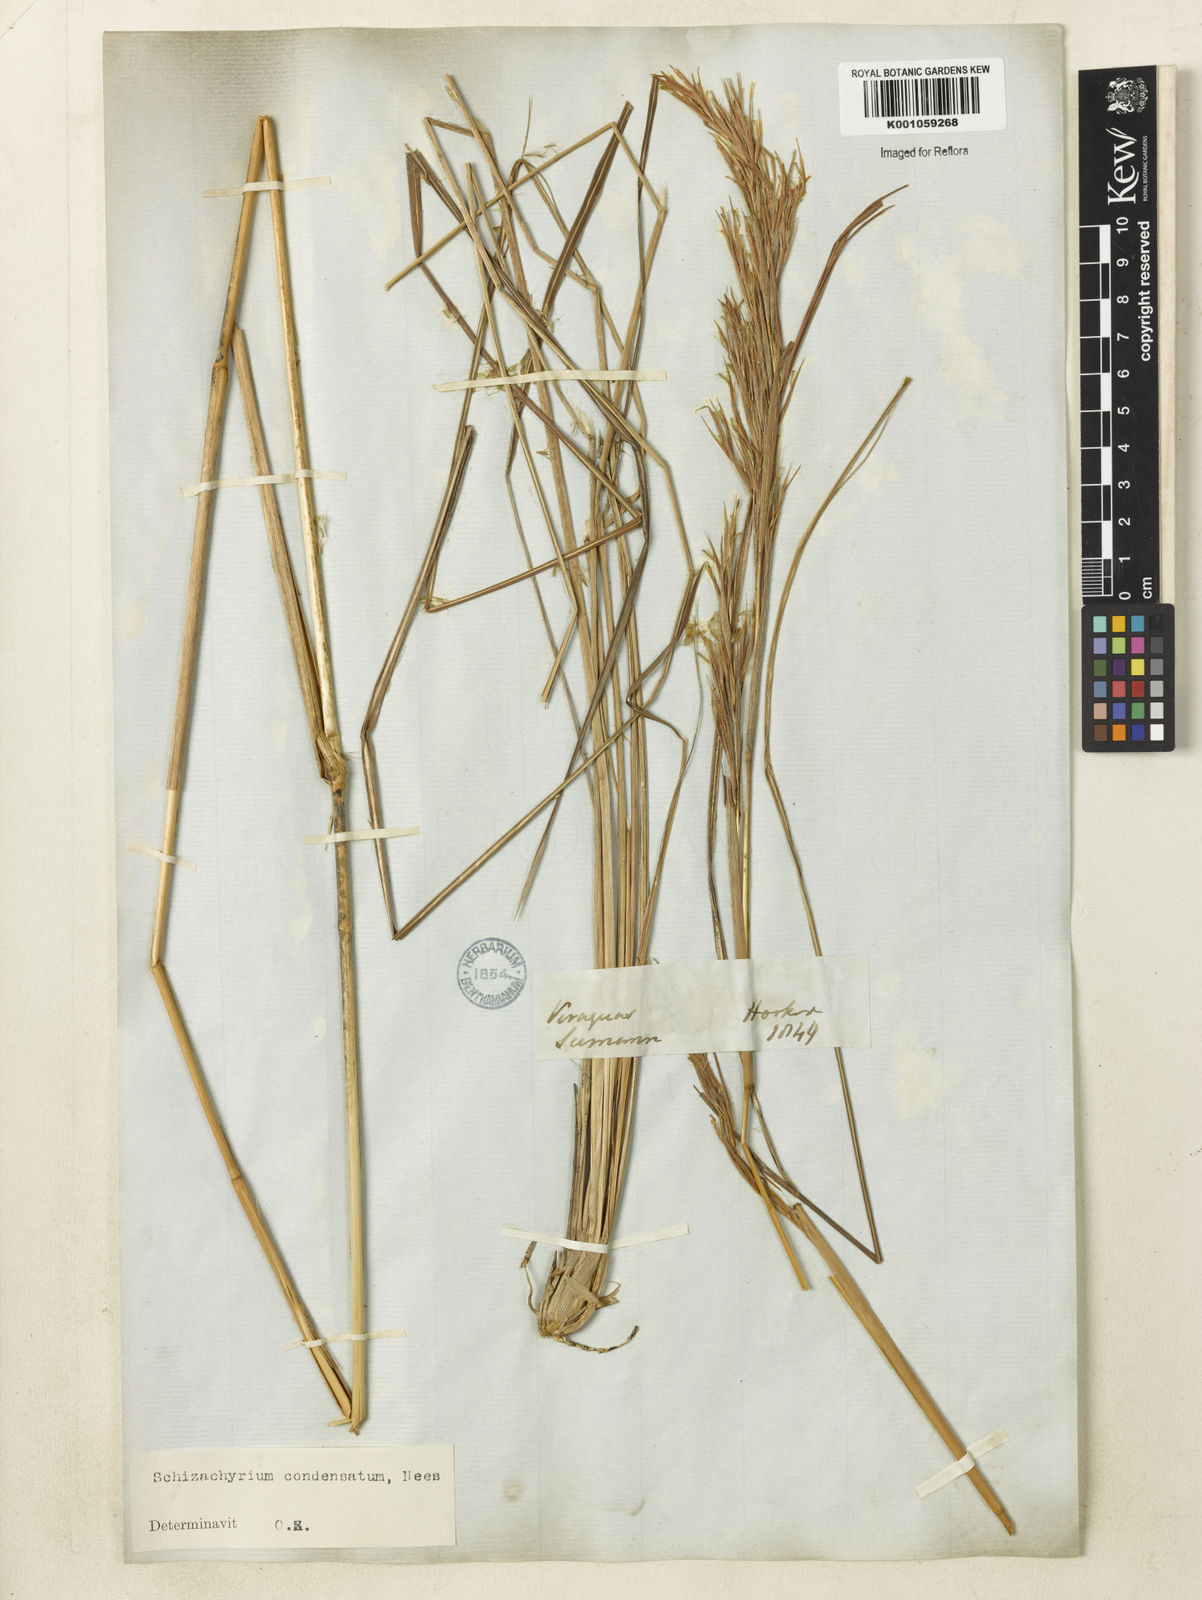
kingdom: Plantae
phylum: Tracheophyta
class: Liliopsida
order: Poales
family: Poaceae
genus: Schizachyrium
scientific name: Schizachyrium
